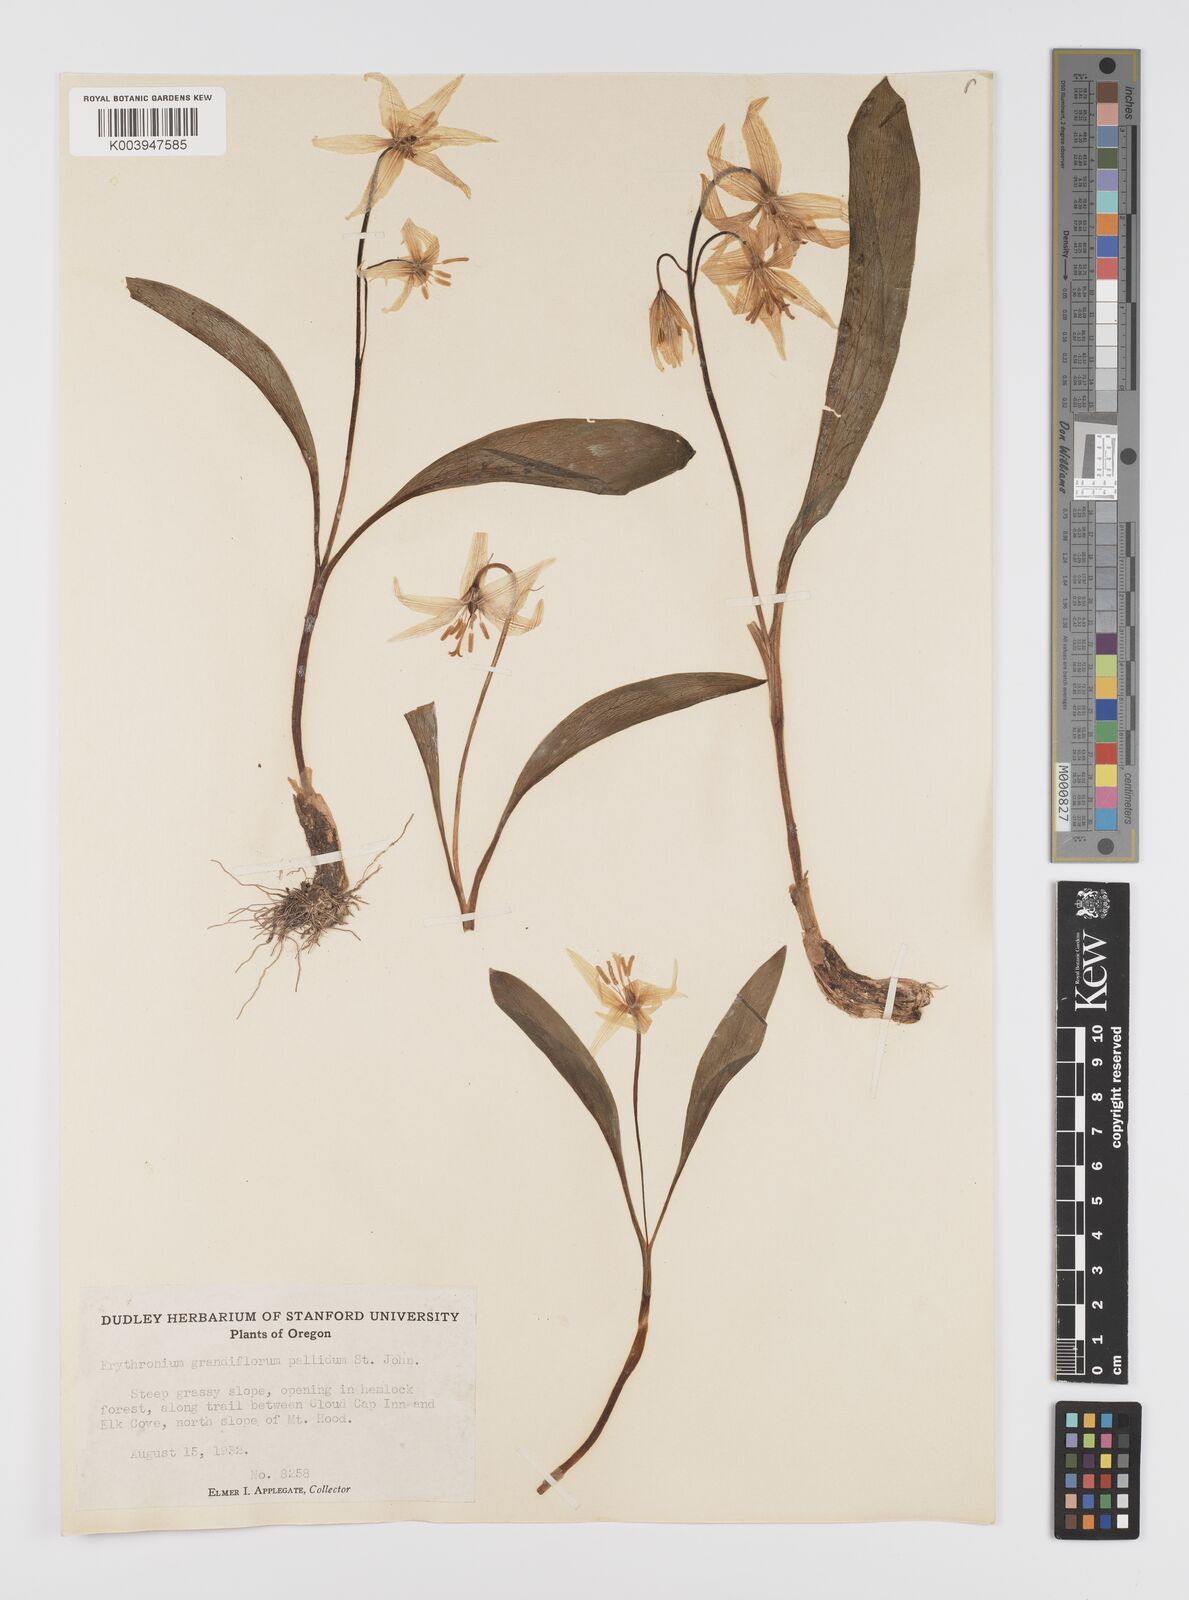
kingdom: Plantae
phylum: Tracheophyta
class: Liliopsida
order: Liliales
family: Liliaceae
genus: Erythronium
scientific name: Erythronium grandiflorum
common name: Avalanche-lily
